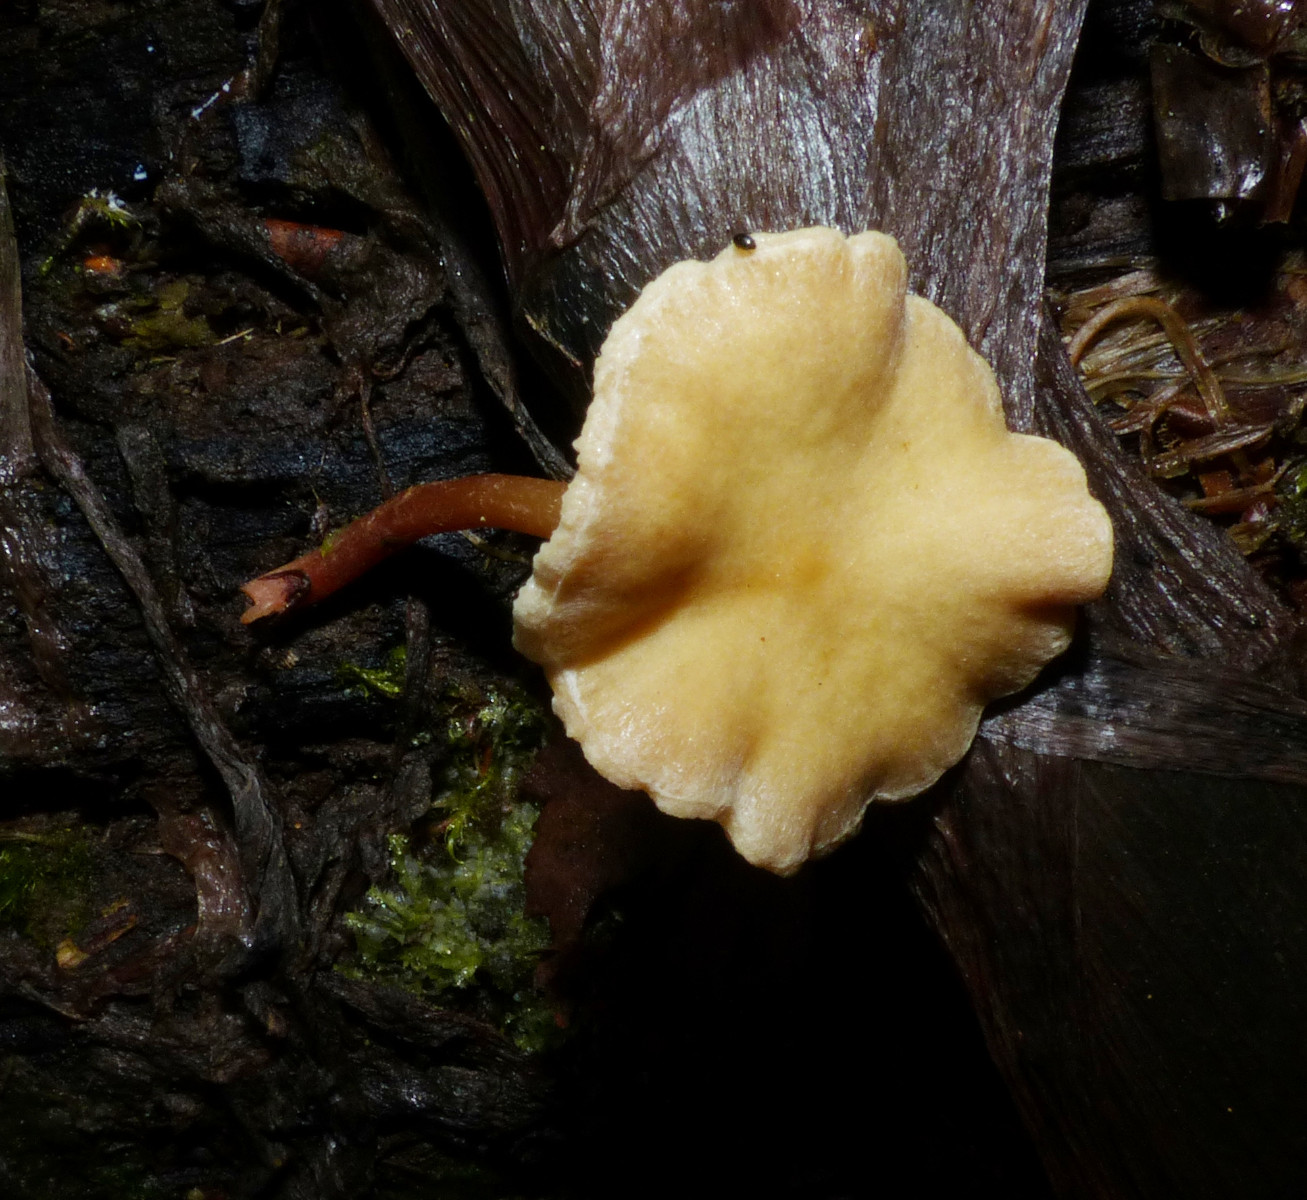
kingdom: Fungi
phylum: Basidiomycota
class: Agaricomycetes
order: Agaricales
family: Strophariaceae
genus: Hypholoma
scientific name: Hypholoma
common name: svovlhat
